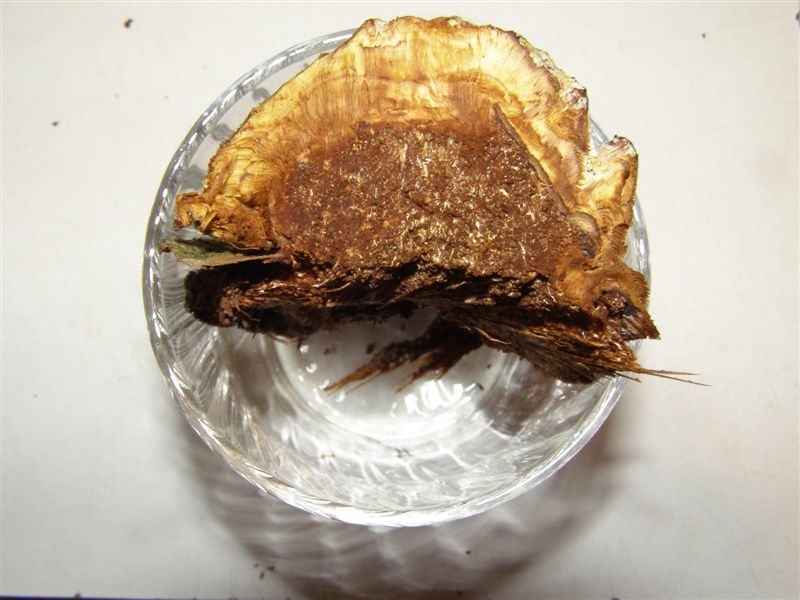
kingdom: Fungi
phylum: Basidiomycota
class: Agaricomycetes
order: Hymenochaetales
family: Hymenochaetaceae
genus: Inocutis
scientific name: Inocutis rheades
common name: ræve-spejlporesvamp
